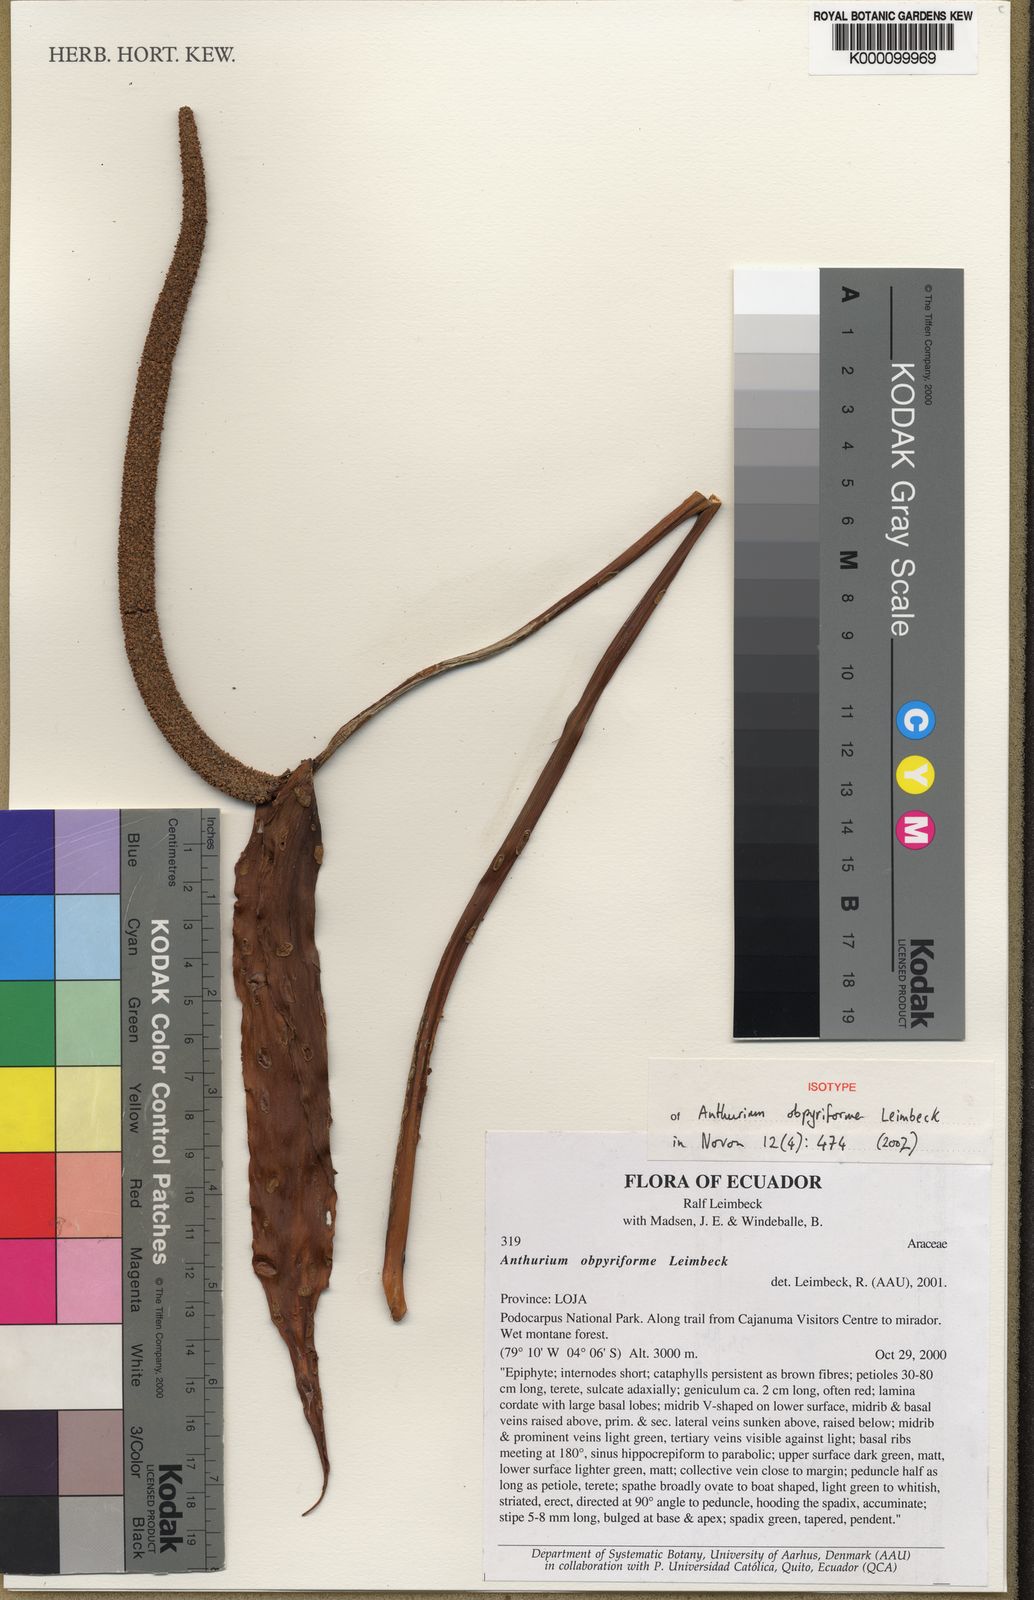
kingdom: Plantae
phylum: Tracheophyta
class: Liliopsida
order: Alismatales
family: Araceae
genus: Anthurium
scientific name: Anthurium obpyriforme
